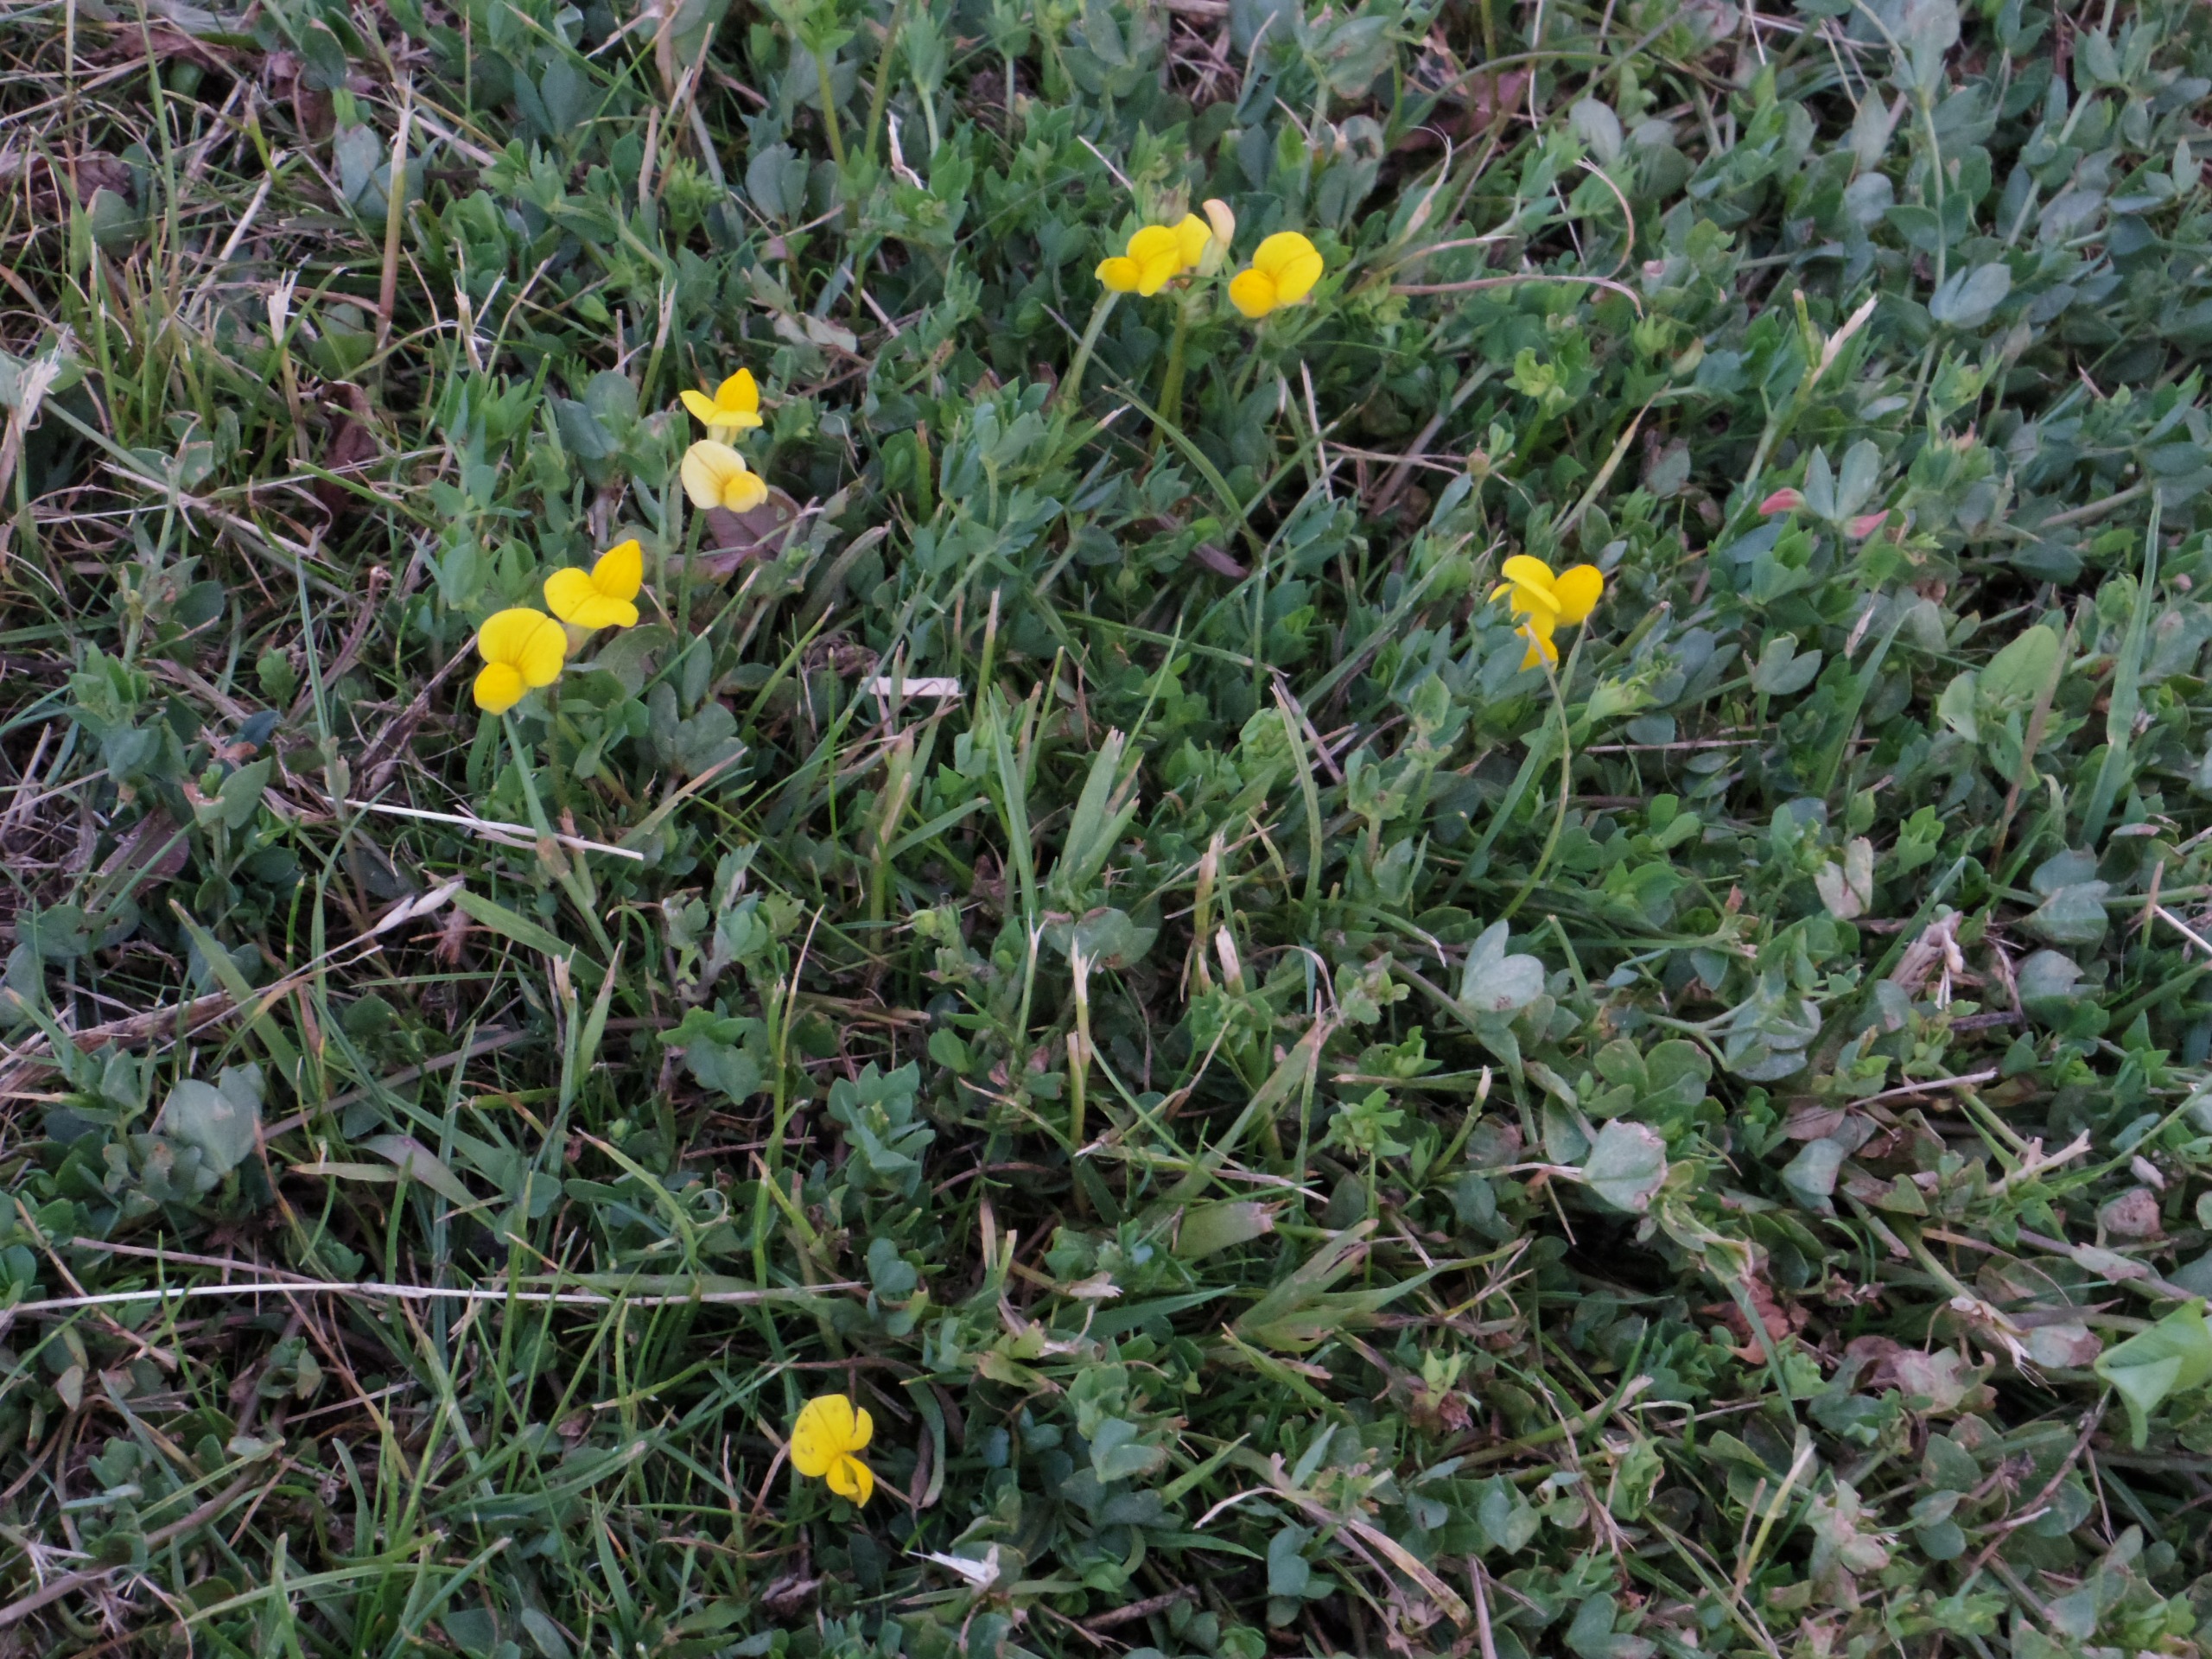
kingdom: Plantae
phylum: Tracheophyta
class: Magnoliopsida
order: Fabales
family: Fabaceae
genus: Lotus
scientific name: Lotus corniculatus
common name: Almindelig kællingetand
